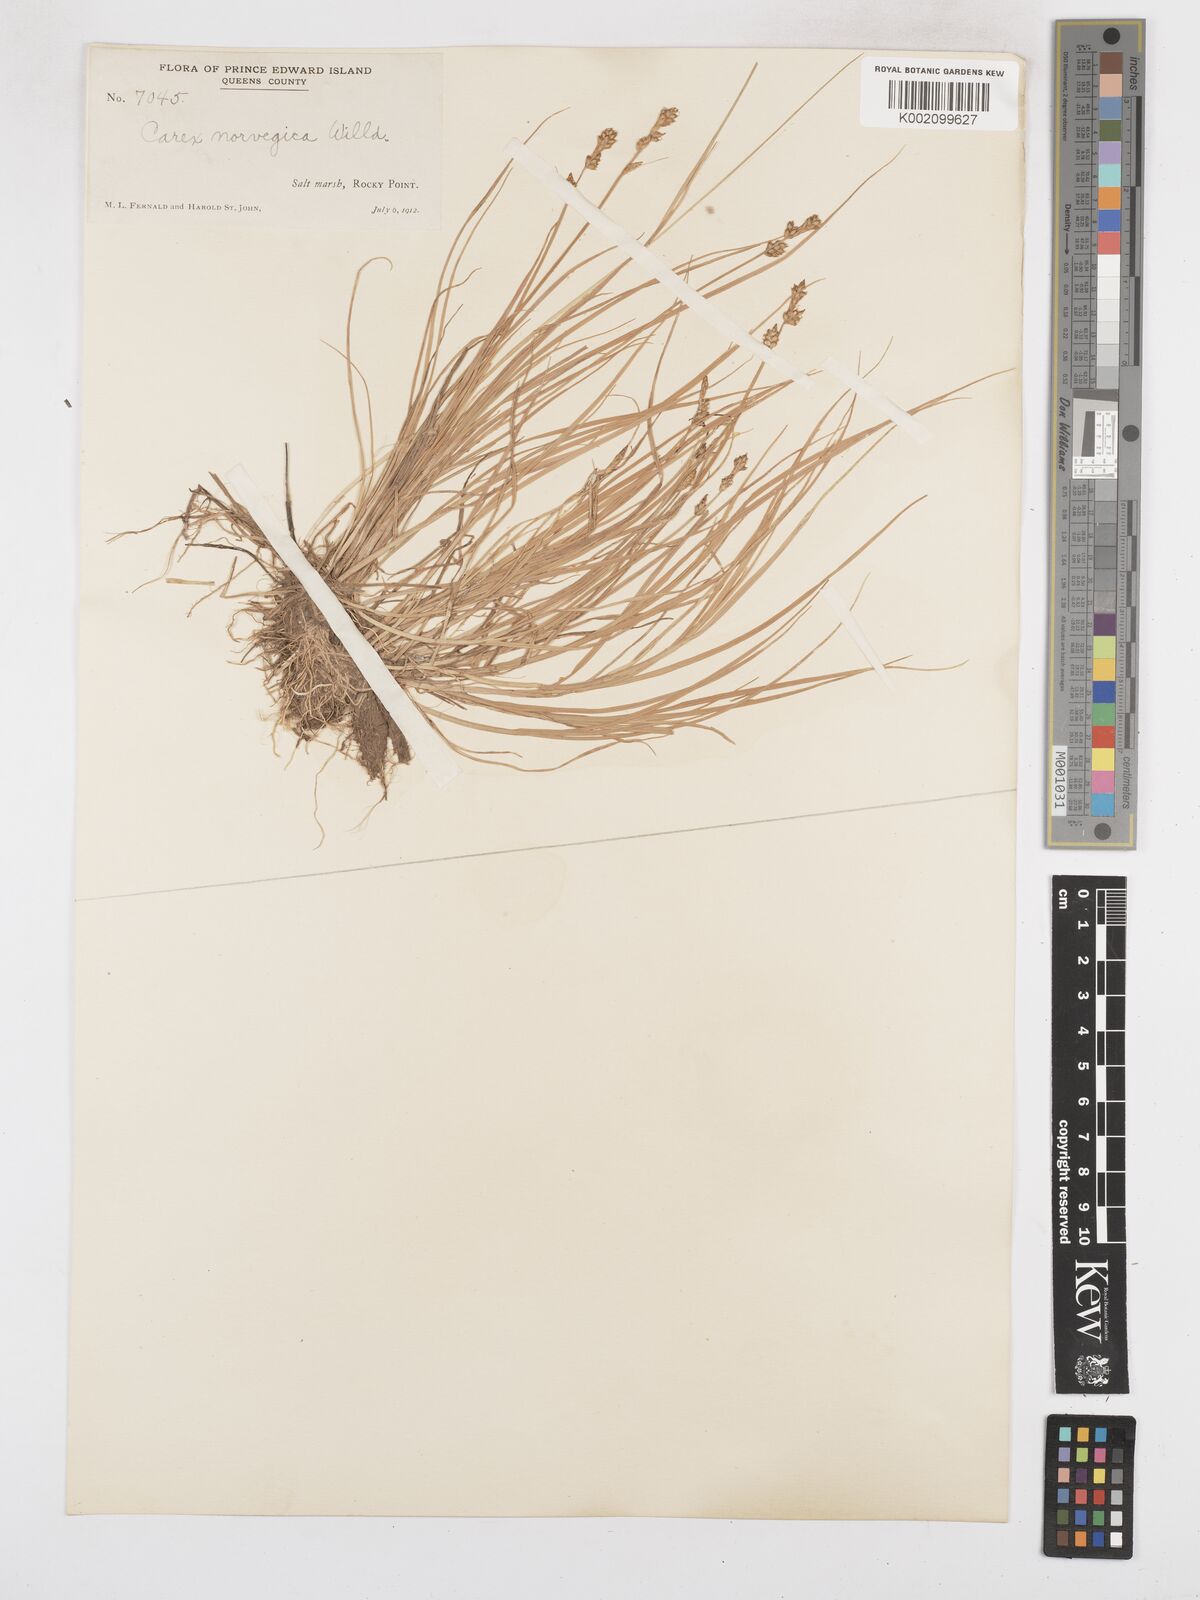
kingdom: Plantae
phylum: Tracheophyta
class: Liliopsida
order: Poales
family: Cyperaceae
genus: Carex
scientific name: Carex mackenziei
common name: Mackenzie's sedge
